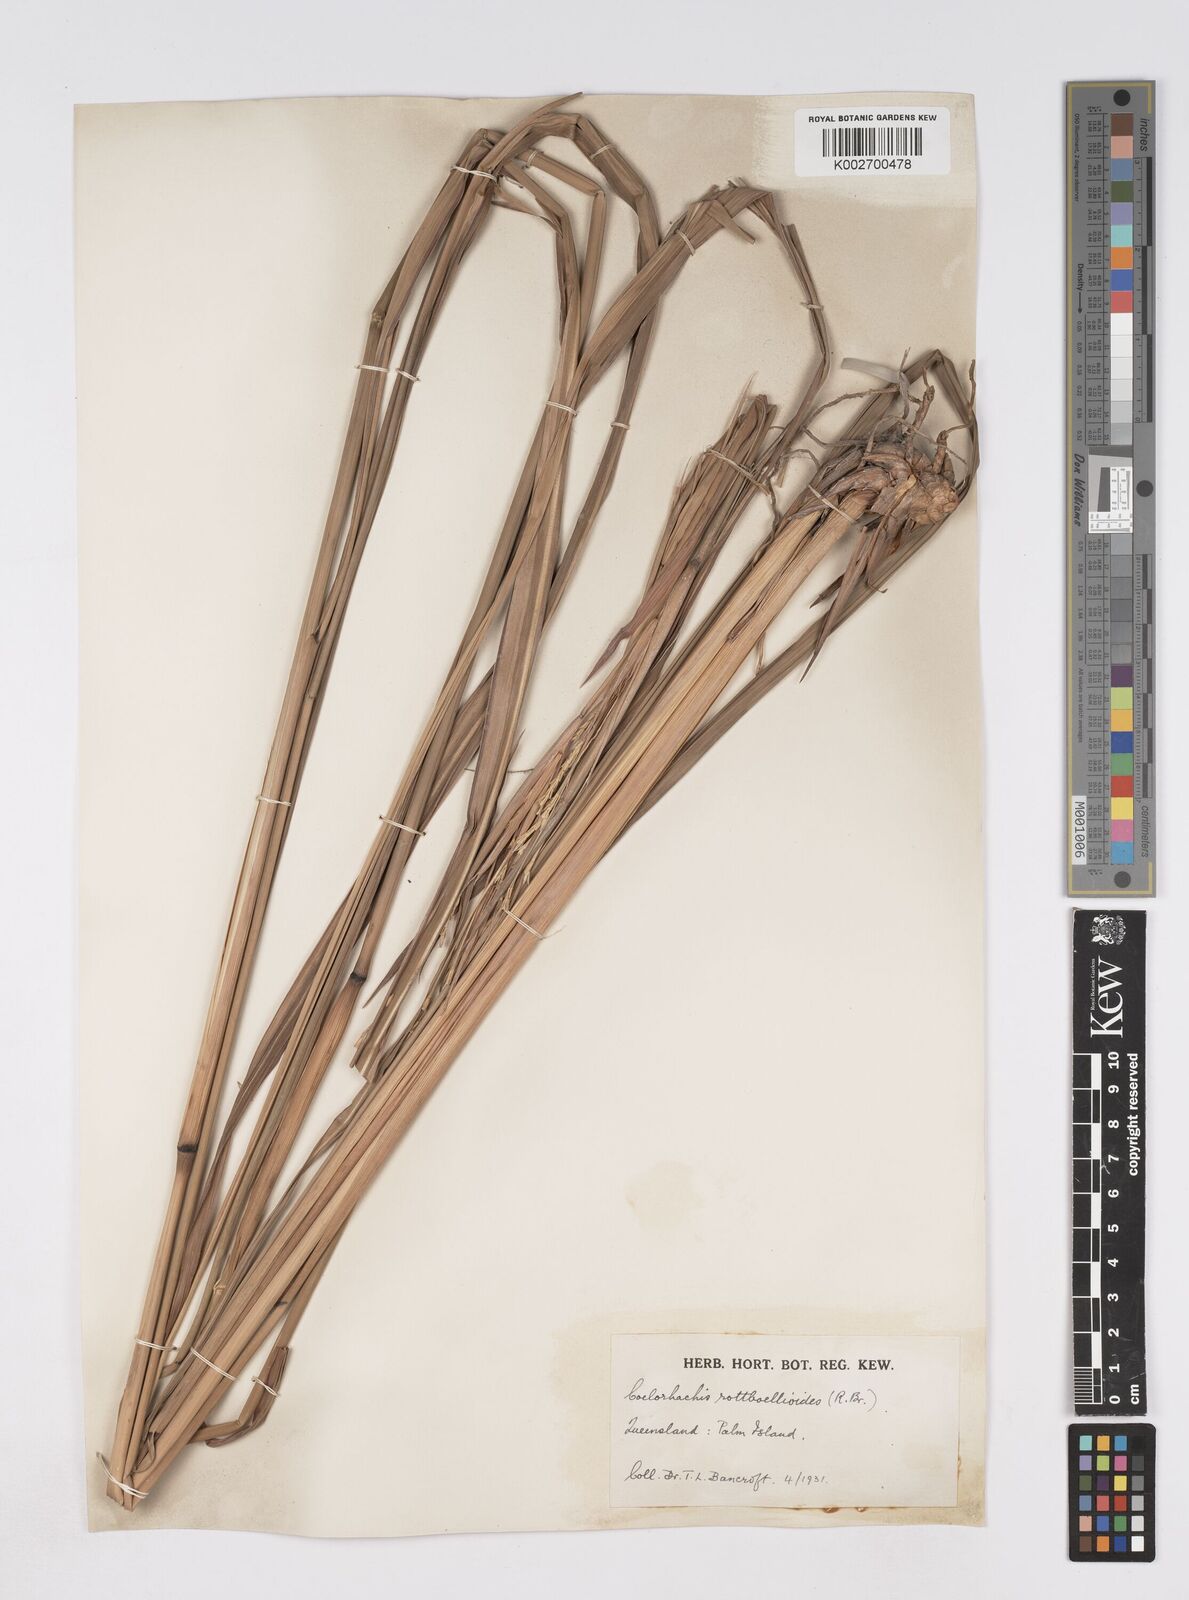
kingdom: Plantae
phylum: Tracheophyta
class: Liliopsida
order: Poales
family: Poaceae
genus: Rottboellia
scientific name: Rottboellia rottboellioides
